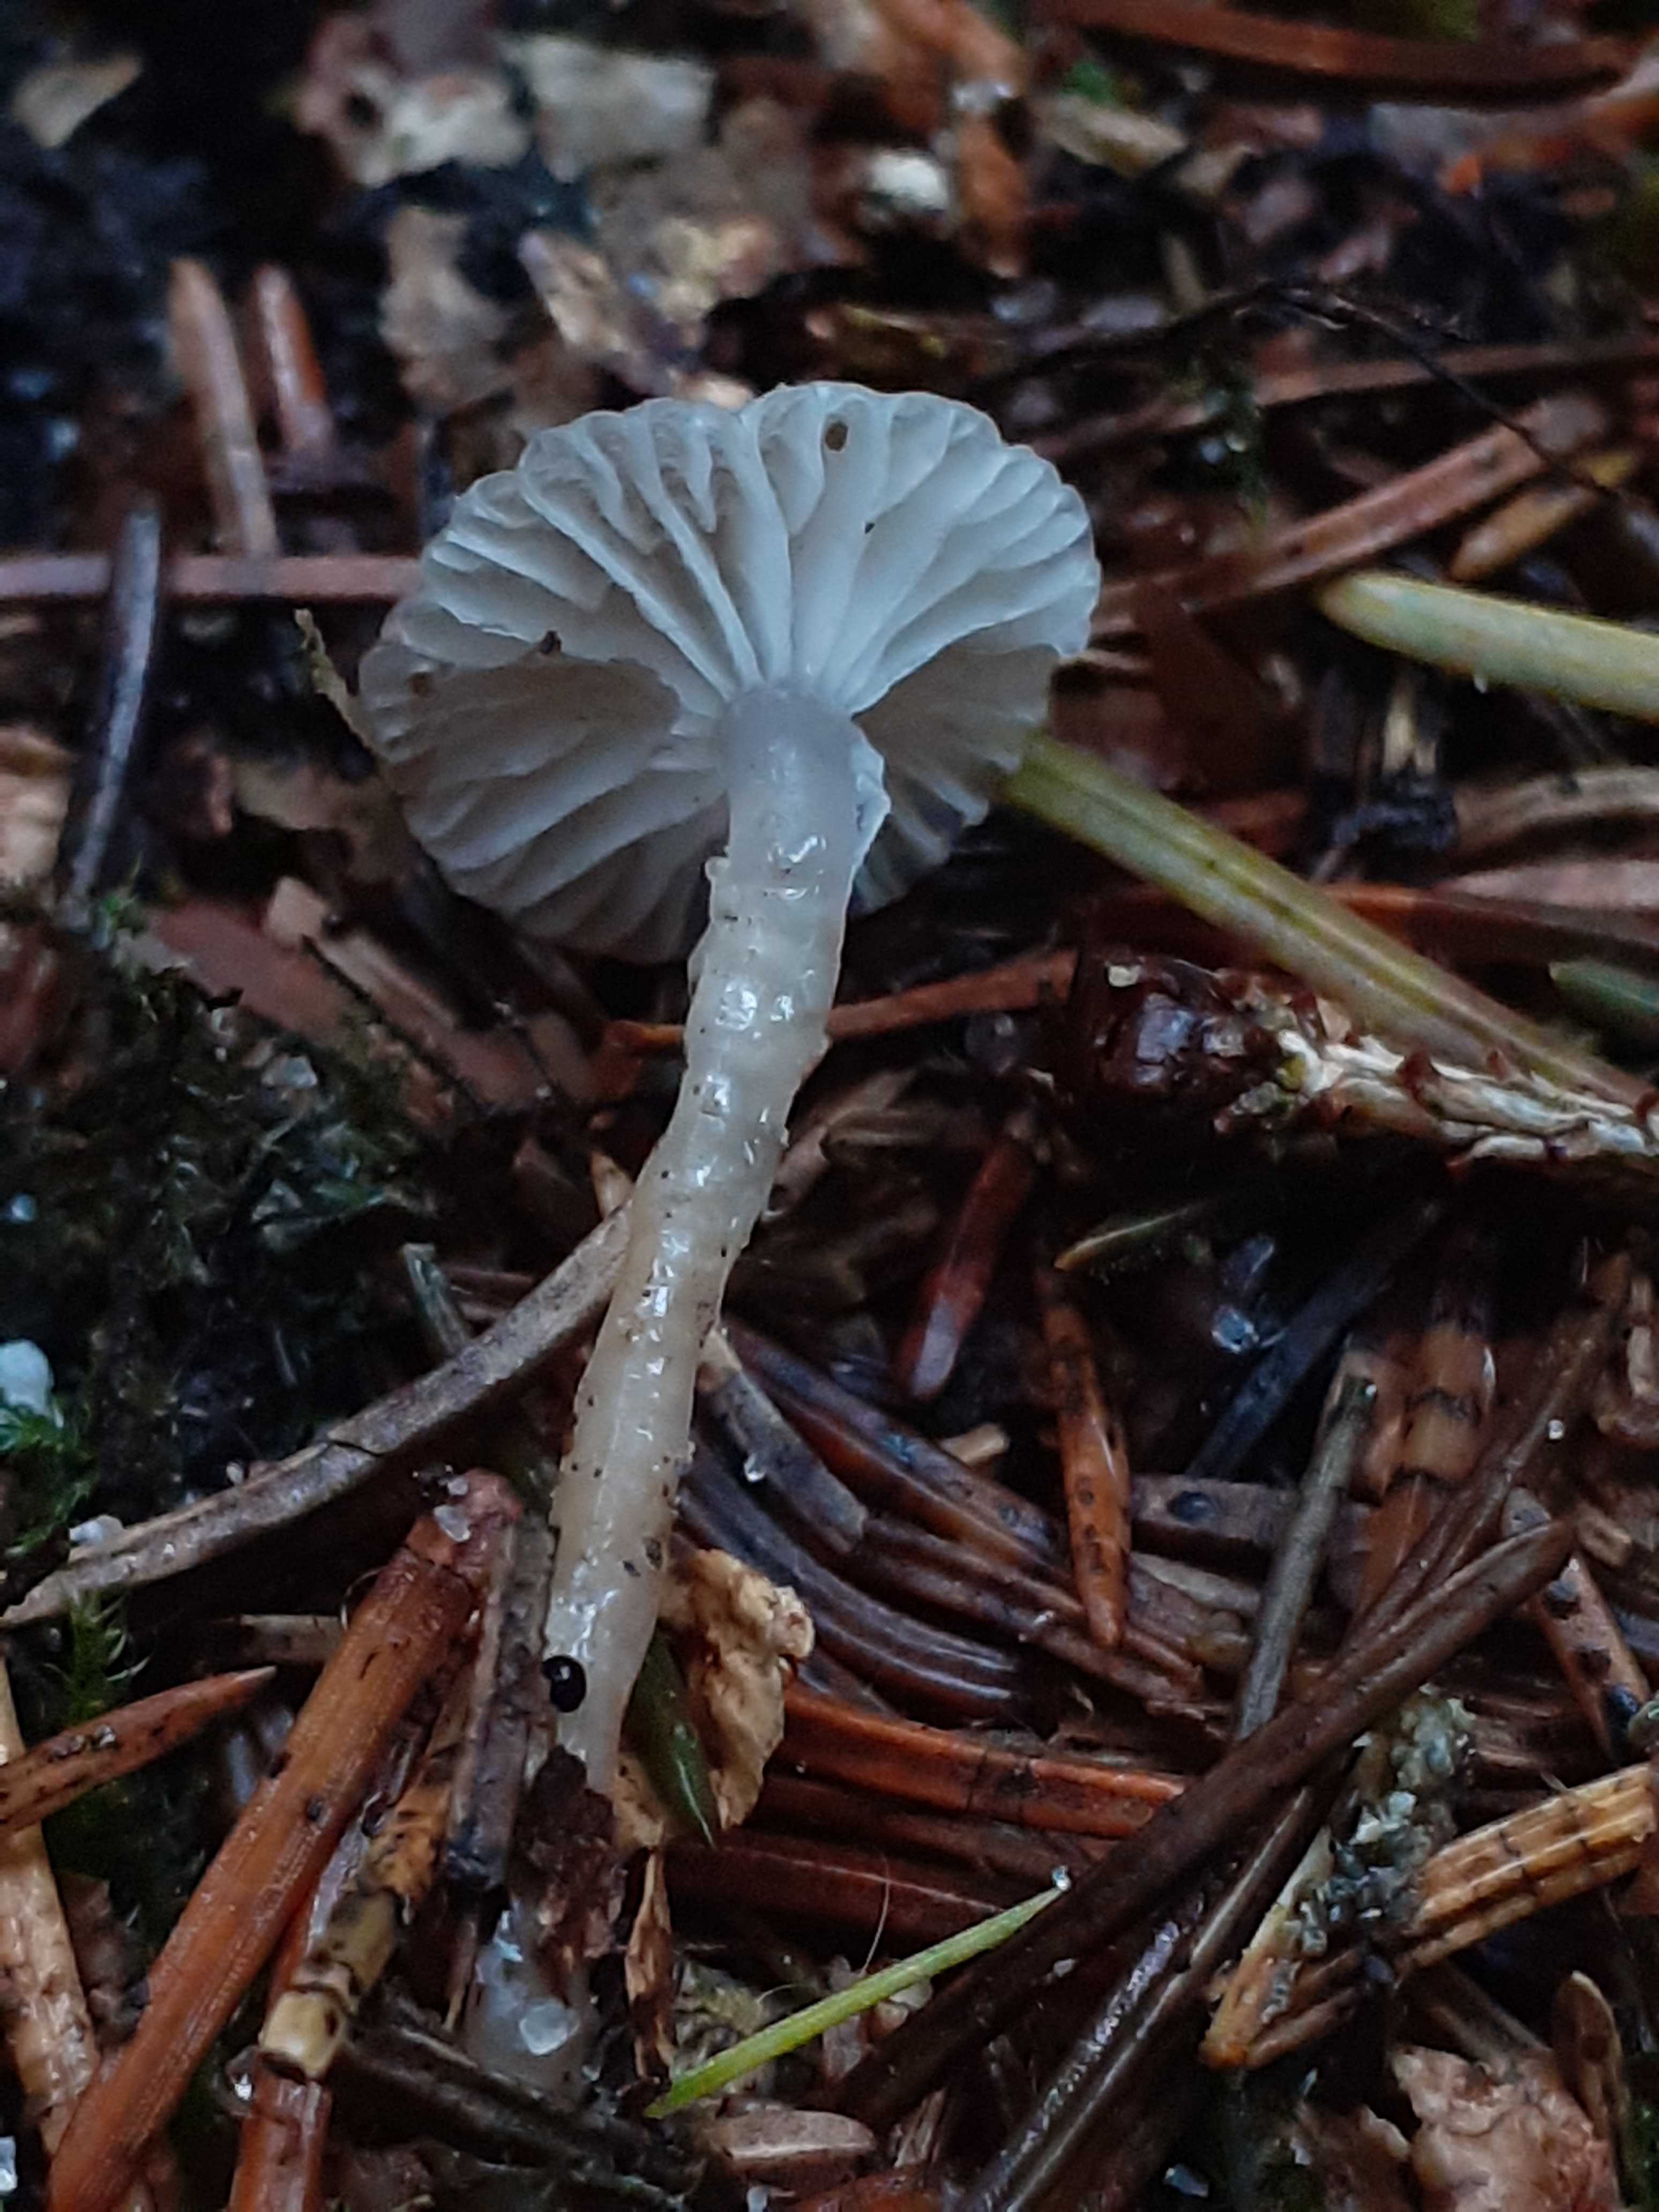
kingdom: Fungi
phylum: Basidiomycota
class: Agaricomycetes
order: Agaricales
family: Mycenaceae
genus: Roridomyces
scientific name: Roridomyces roridus
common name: slimfod
